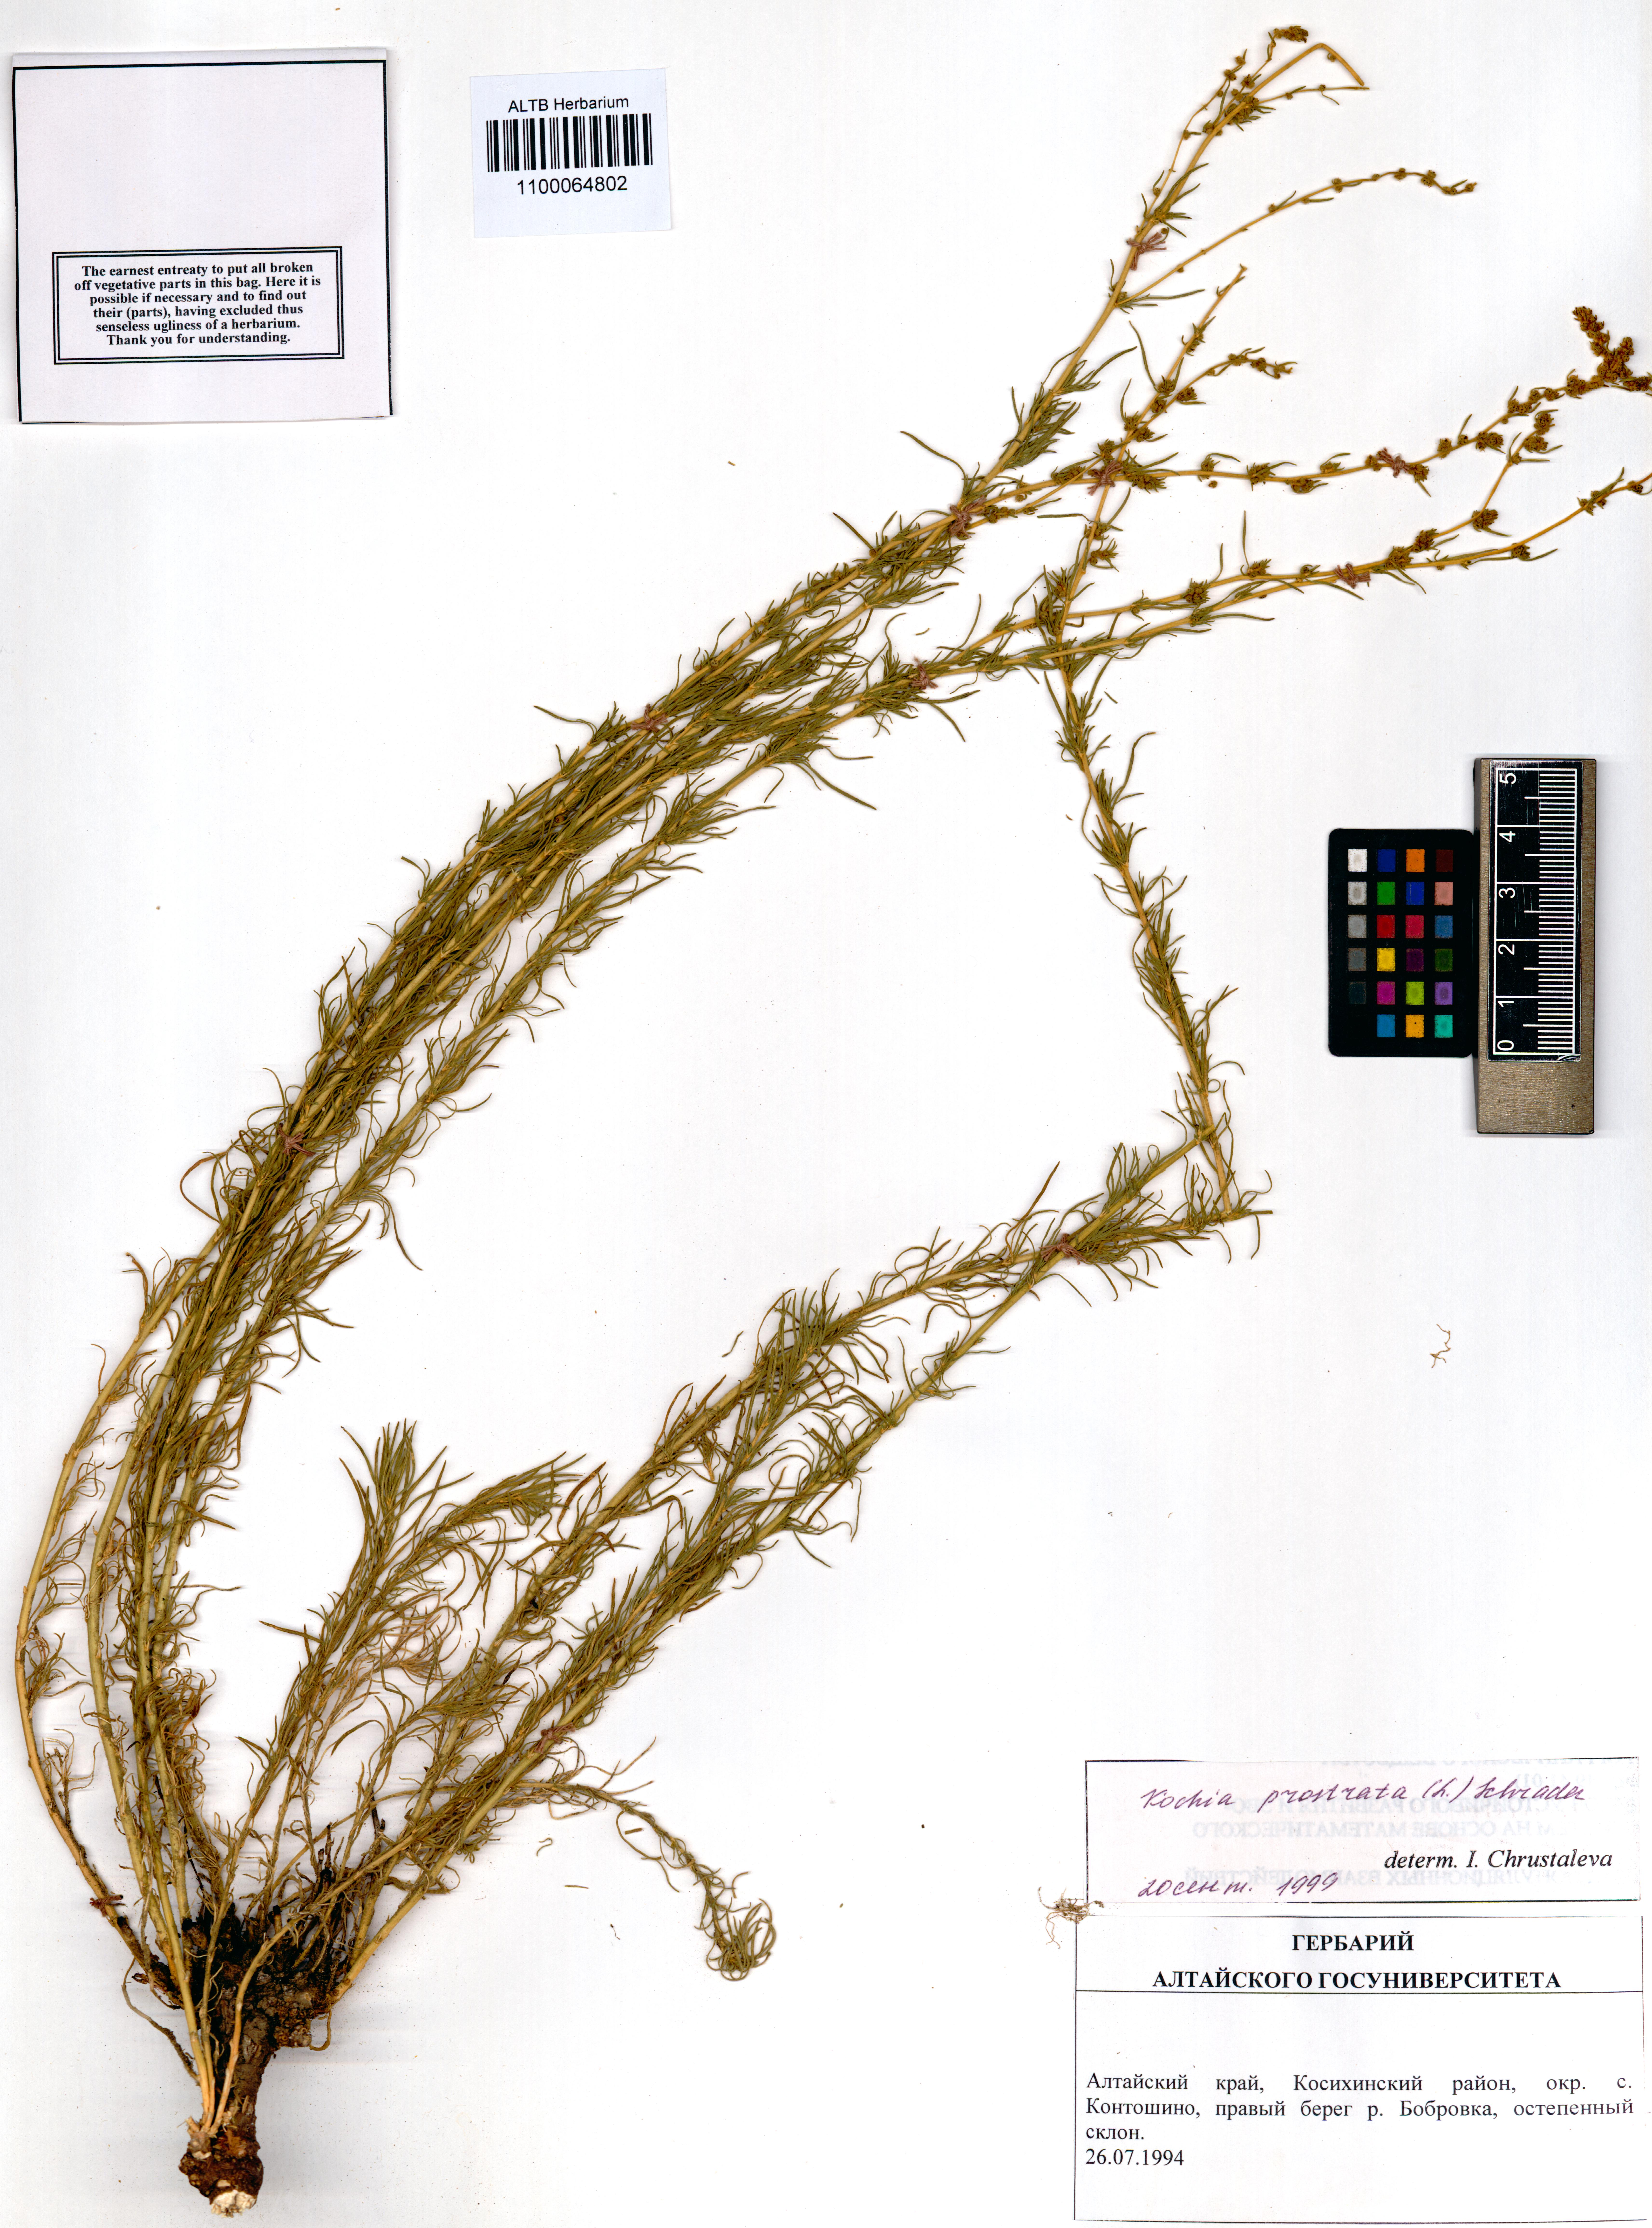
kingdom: Plantae
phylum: Tracheophyta
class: Magnoliopsida
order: Caryophyllales
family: Amaranthaceae
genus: Bassia
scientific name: Bassia prostrata
